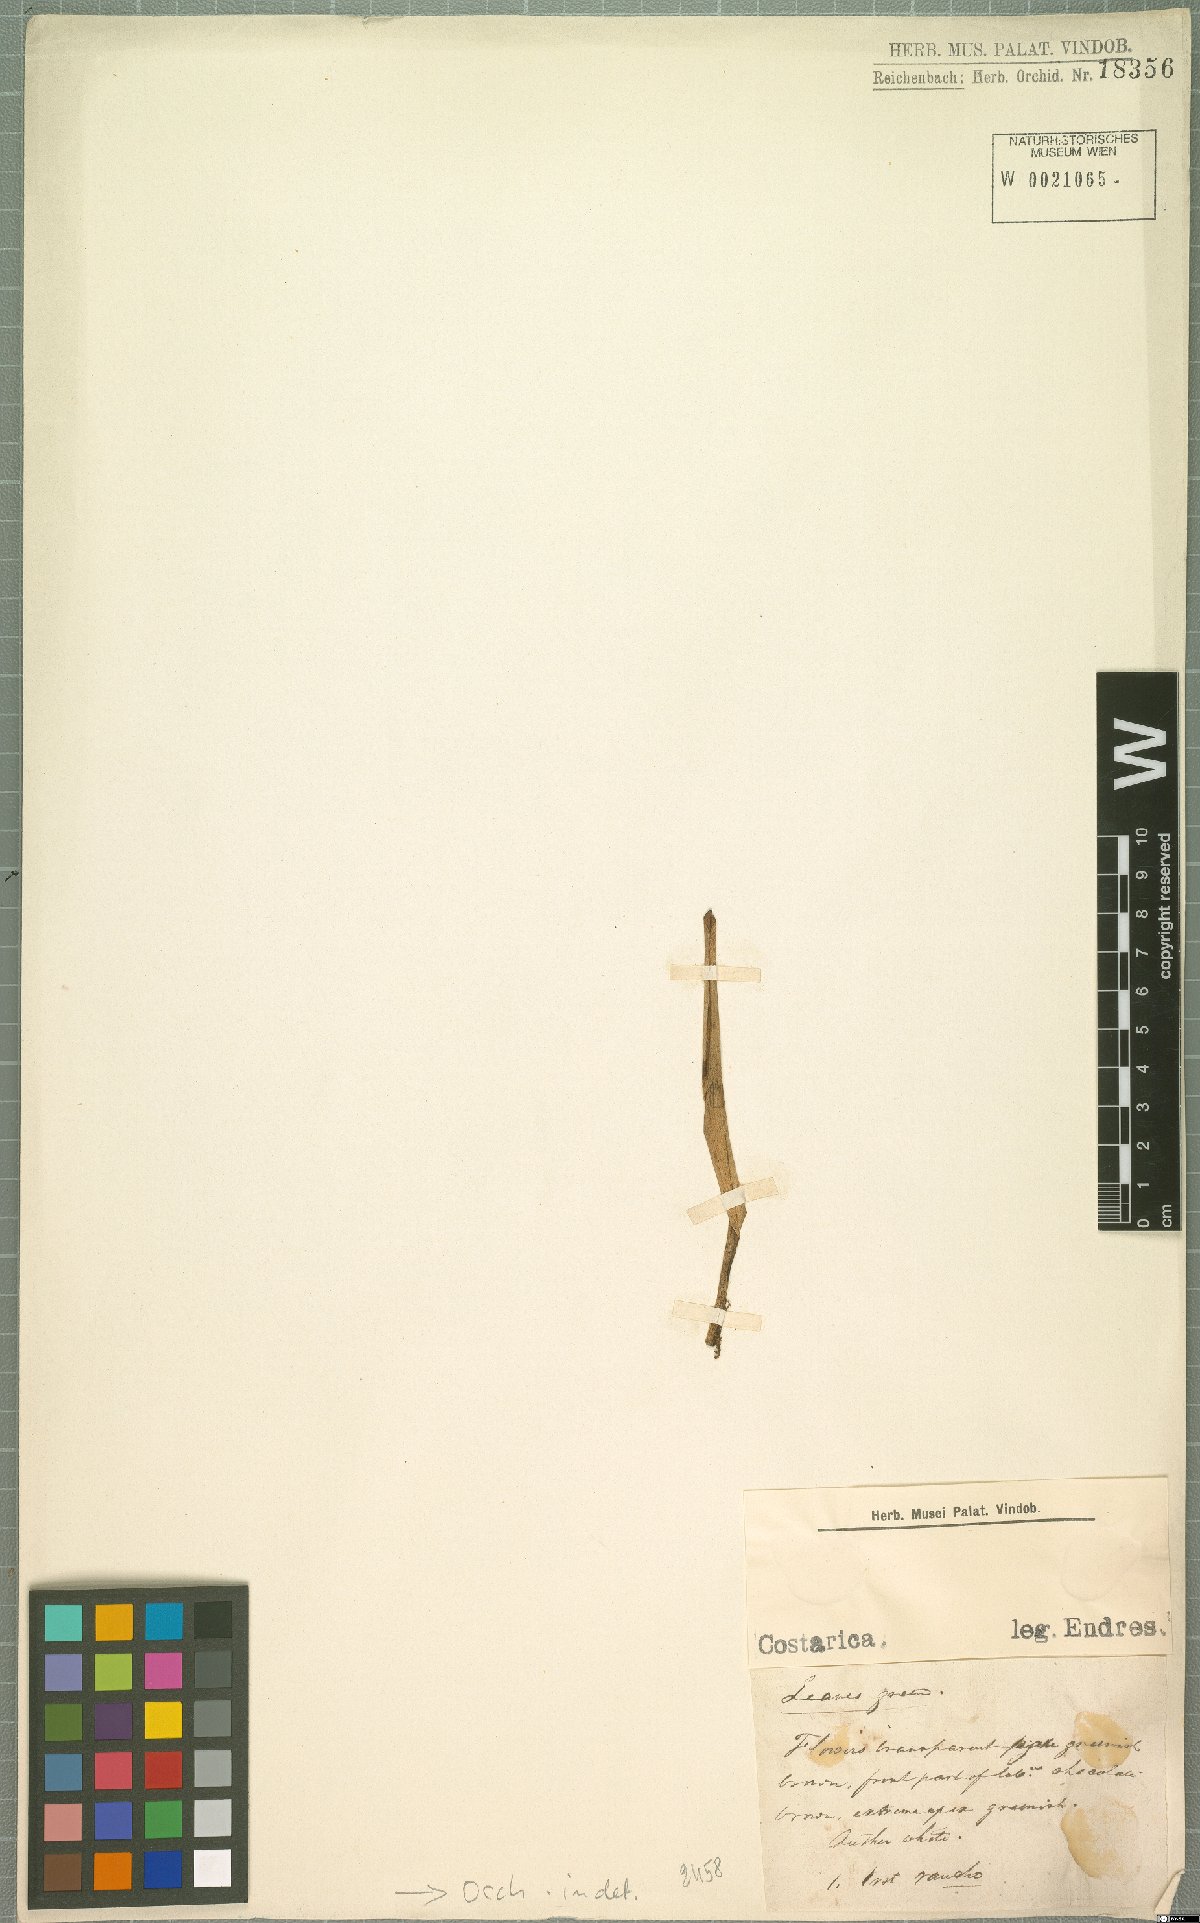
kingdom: Plantae
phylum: Tracheophyta
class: Liliopsida
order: Asparagales
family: Orchidaceae
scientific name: Orchidaceae
